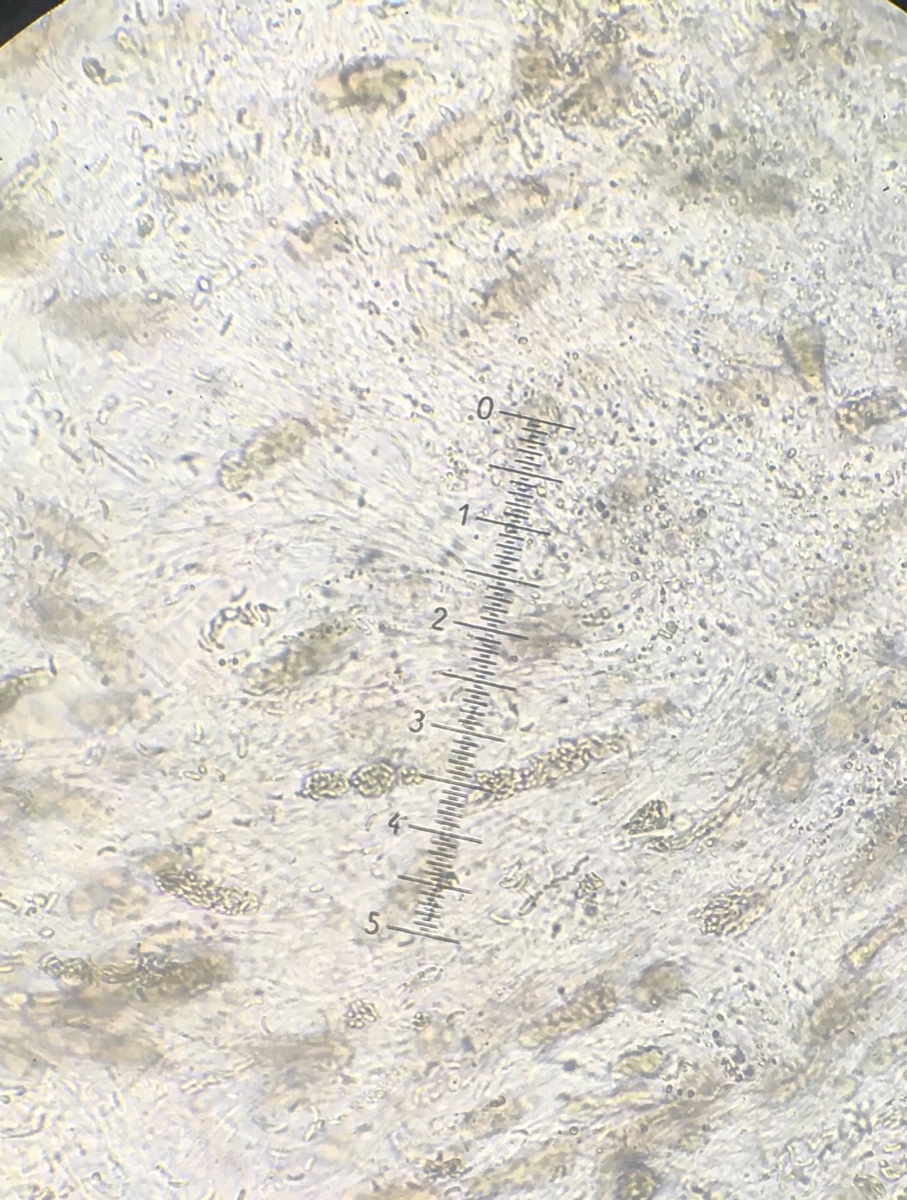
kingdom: Fungi
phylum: Ascomycota
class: Sordariomycetes
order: Xylariales
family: Diatrypaceae
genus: Diatrypella
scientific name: Diatrypella
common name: kulskorpe
